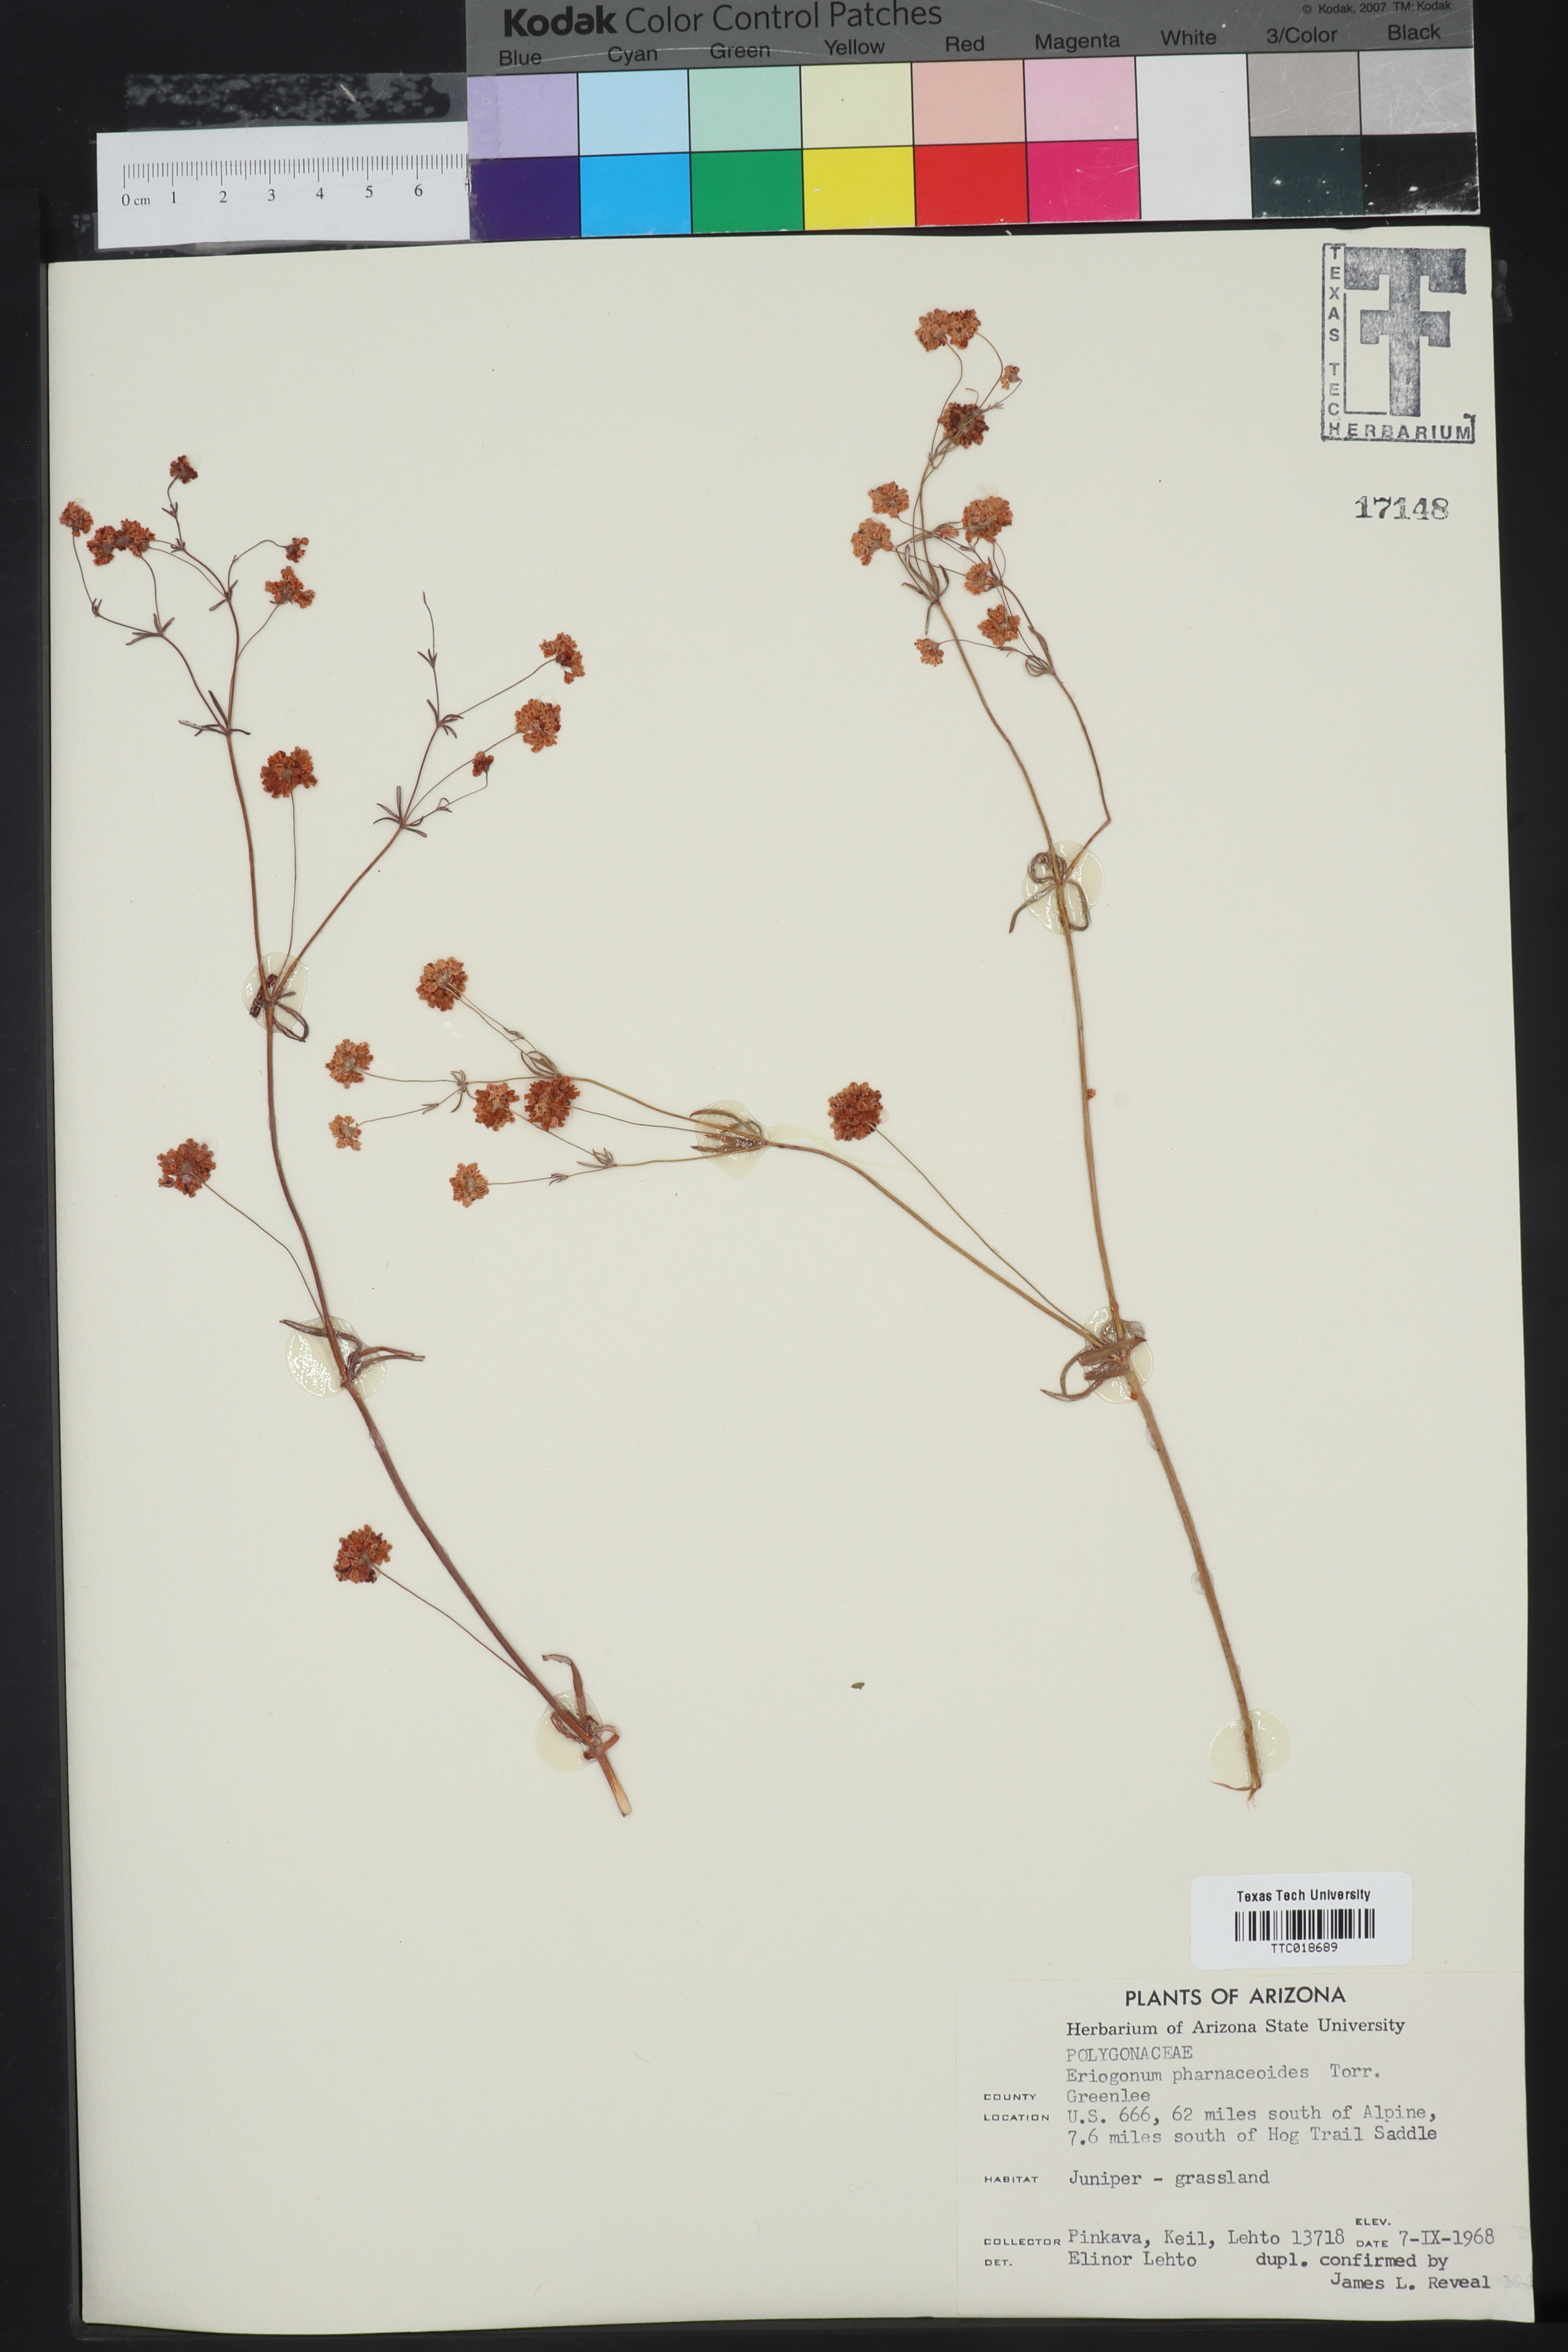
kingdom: Plantae
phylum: Tracheophyta
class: Magnoliopsida
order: Caryophyllales
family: Polygonaceae
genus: Eriogonum
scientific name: Eriogonum pharnaceoides
